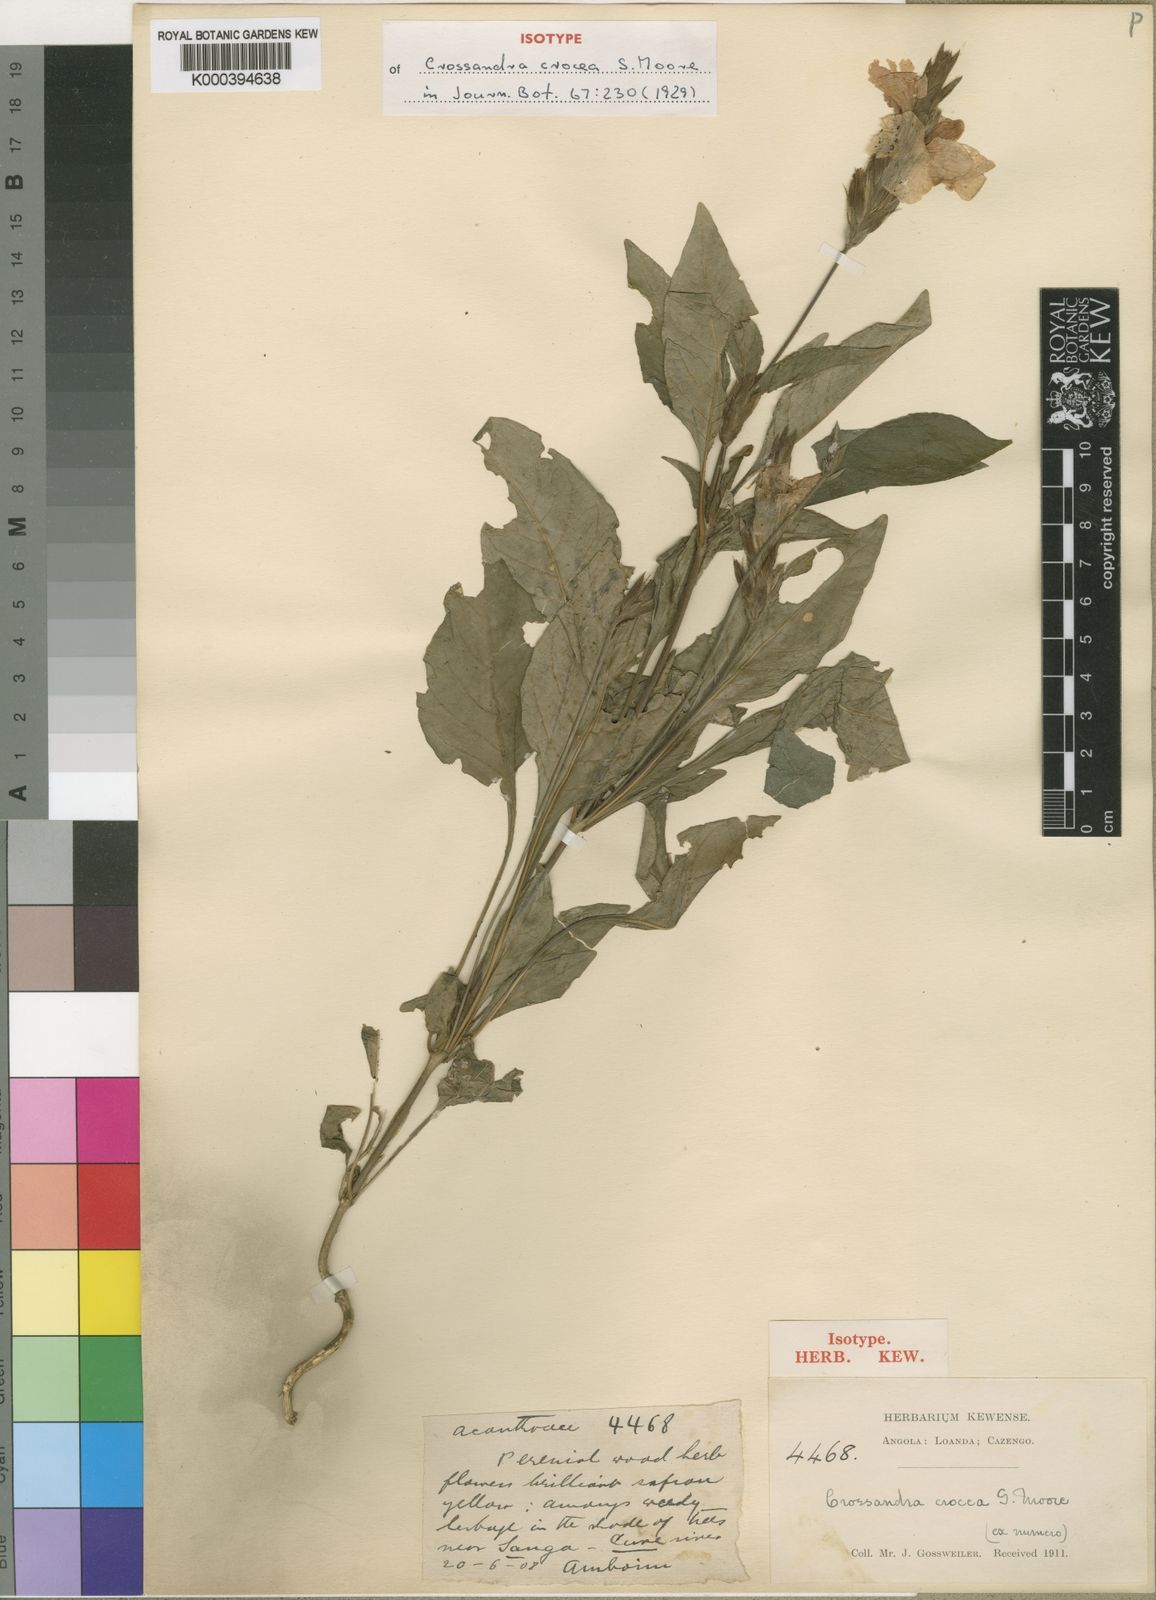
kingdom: Plantae
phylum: Tracheophyta
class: Magnoliopsida
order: Lamiales
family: Acanthaceae
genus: Crossandra
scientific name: Crossandra infundibuliformis
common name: Firecracker-flower
